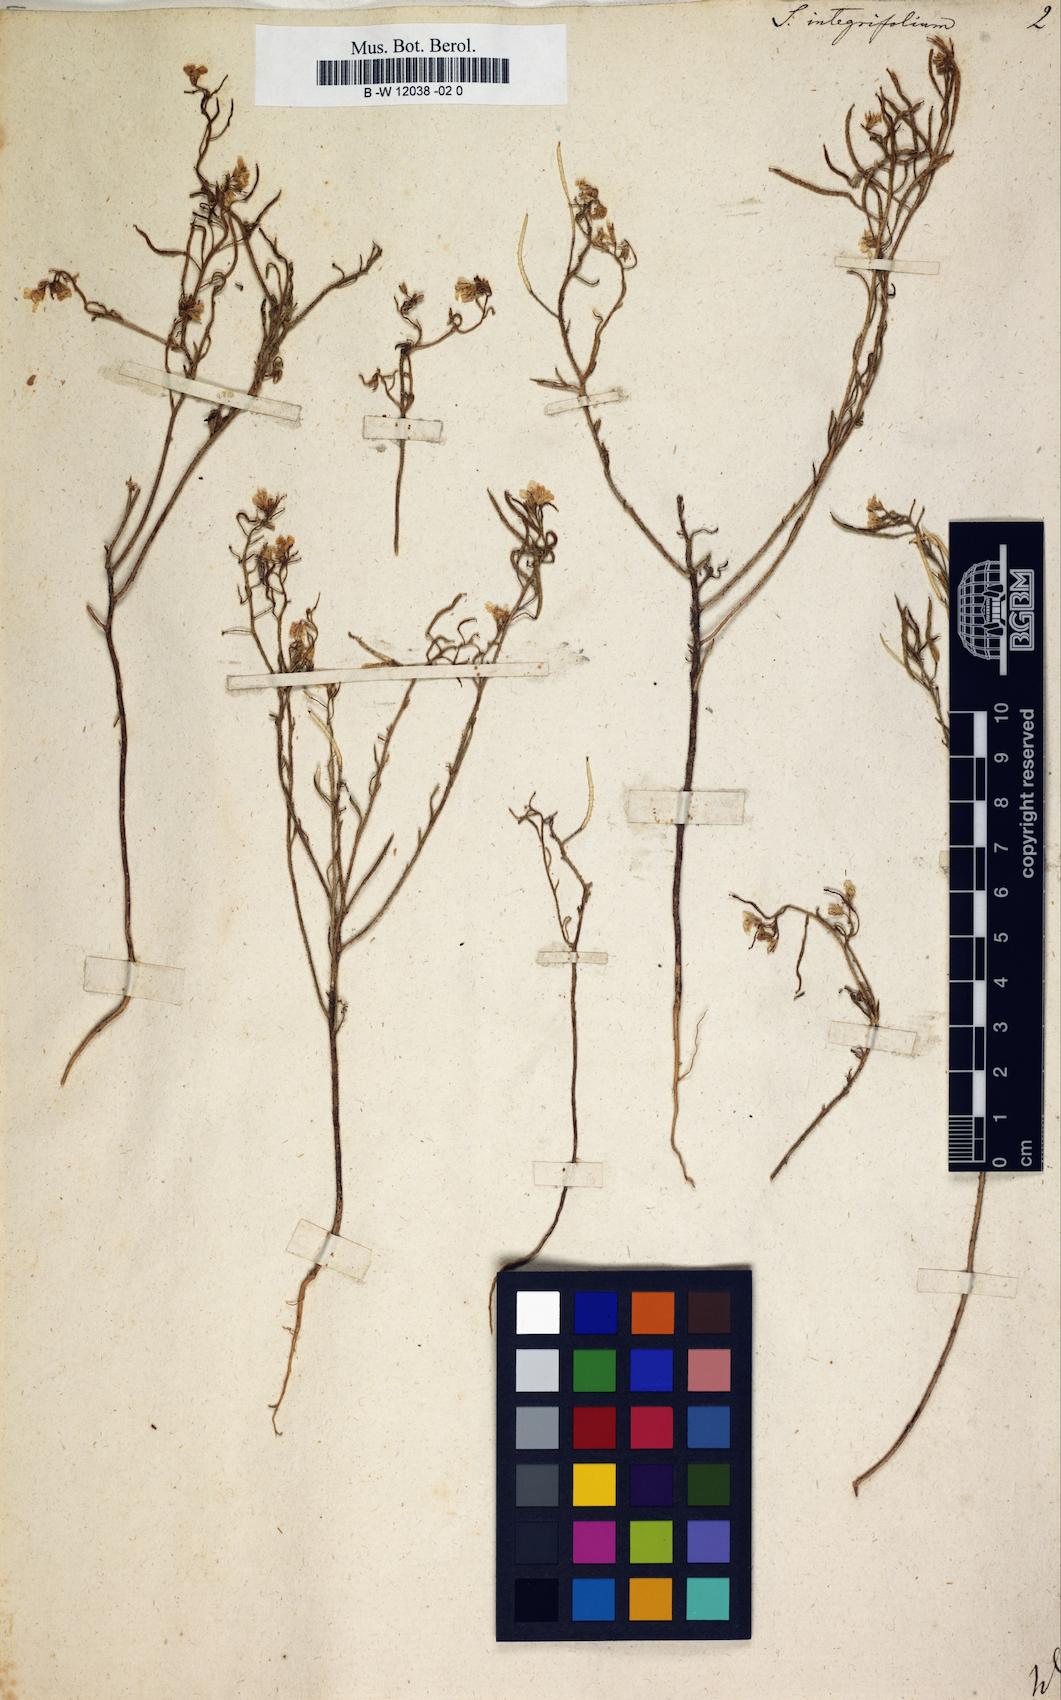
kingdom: Plantae
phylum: Tracheophyta
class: Magnoliopsida
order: Brassicales
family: Brassicaceae
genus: Sisymbrium
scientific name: Sisymbrium integrifolium
